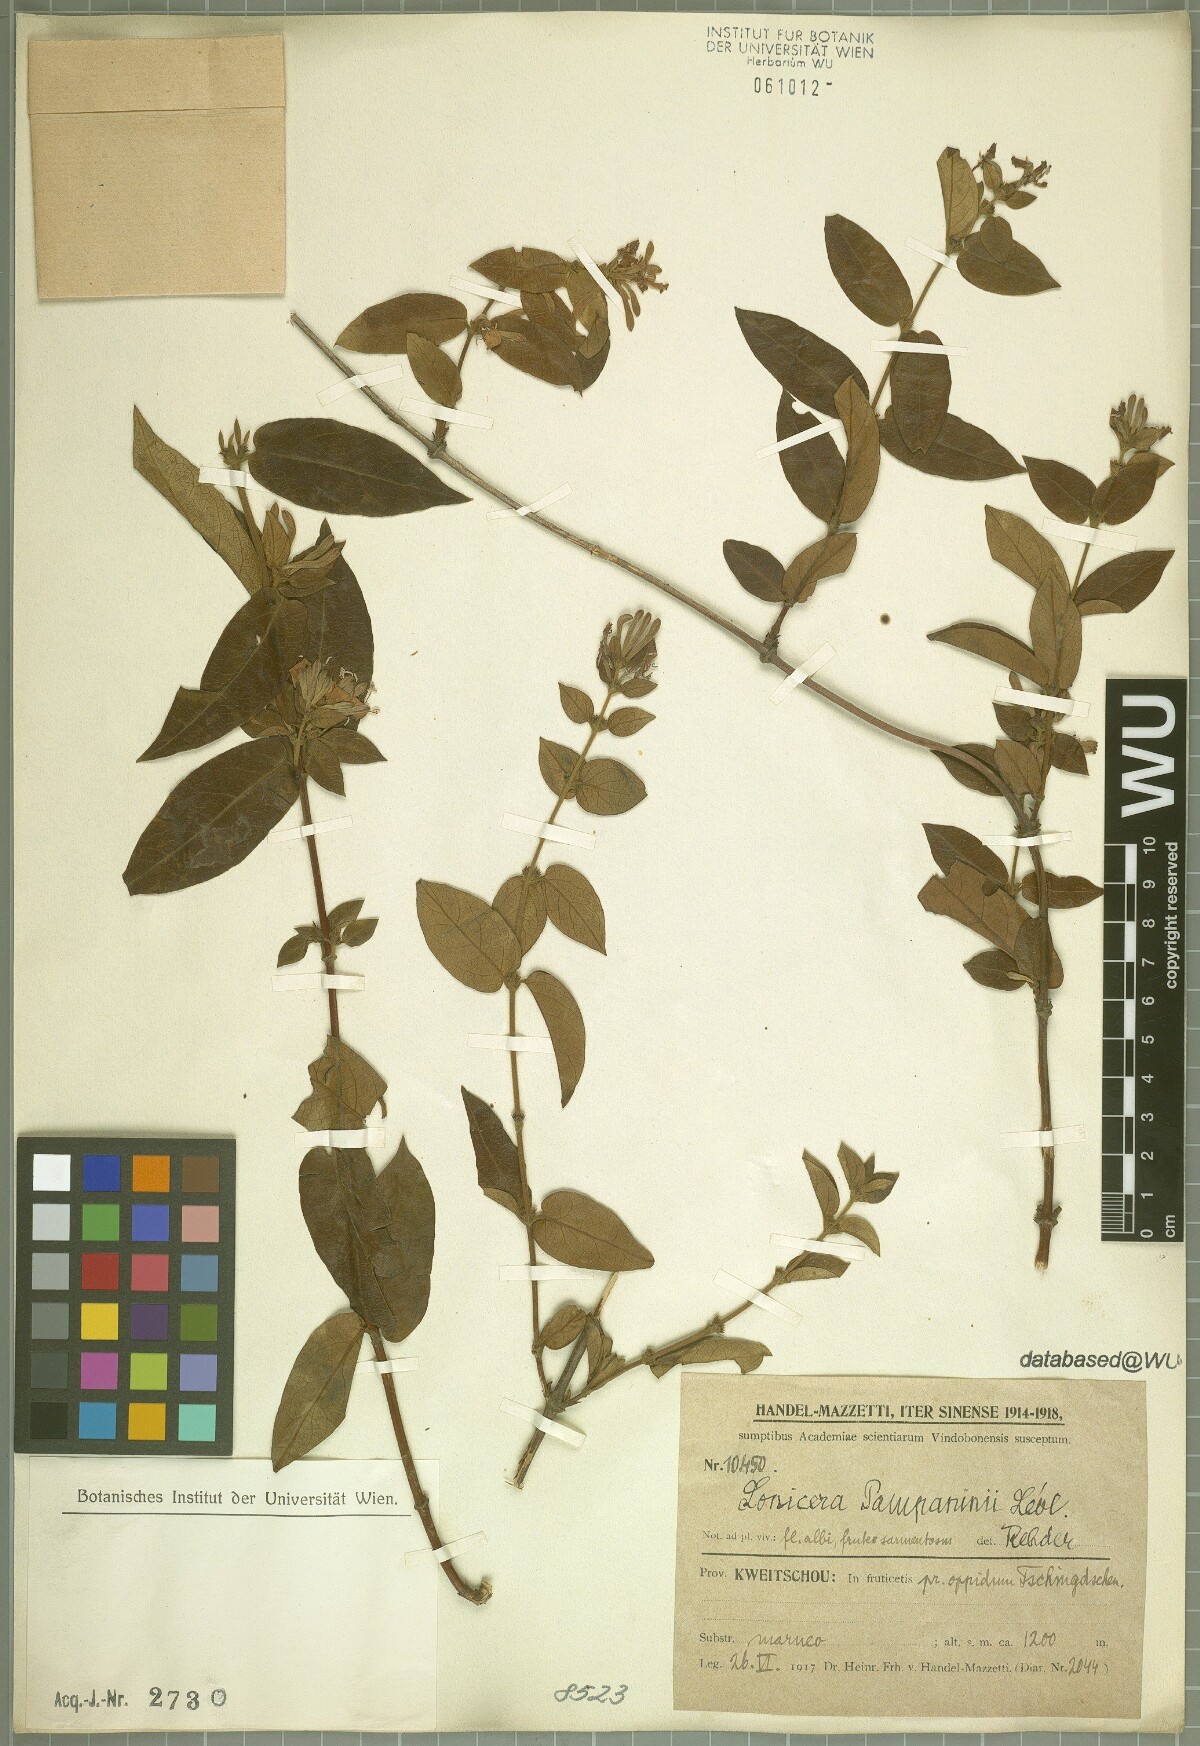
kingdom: Plantae
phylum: Tracheophyta
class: Magnoliopsida
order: Dipsacales
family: Caprifoliaceae
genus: Lonicera
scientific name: Lonicera pampaninii
